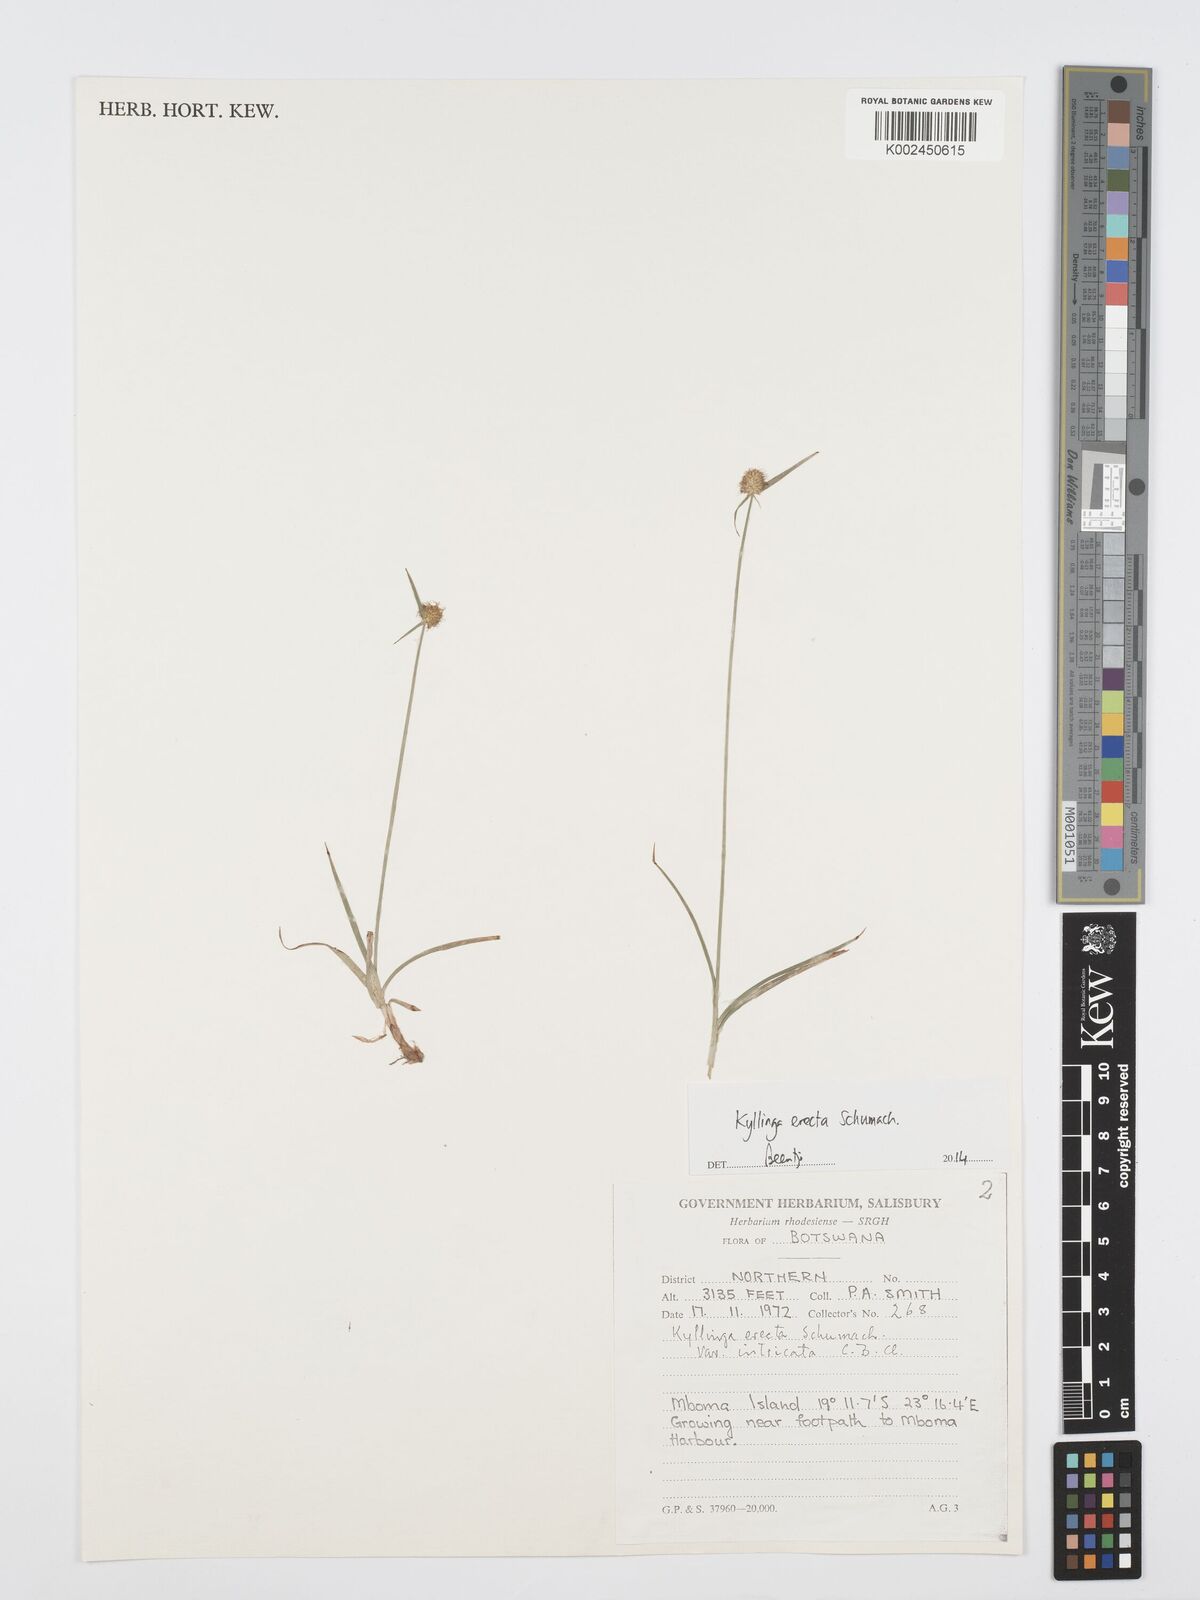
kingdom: Plantae
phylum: Tracheophyta
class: Liliopsida
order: Poales
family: Cyperaceae
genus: Cyperus
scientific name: Cyperus erectus
